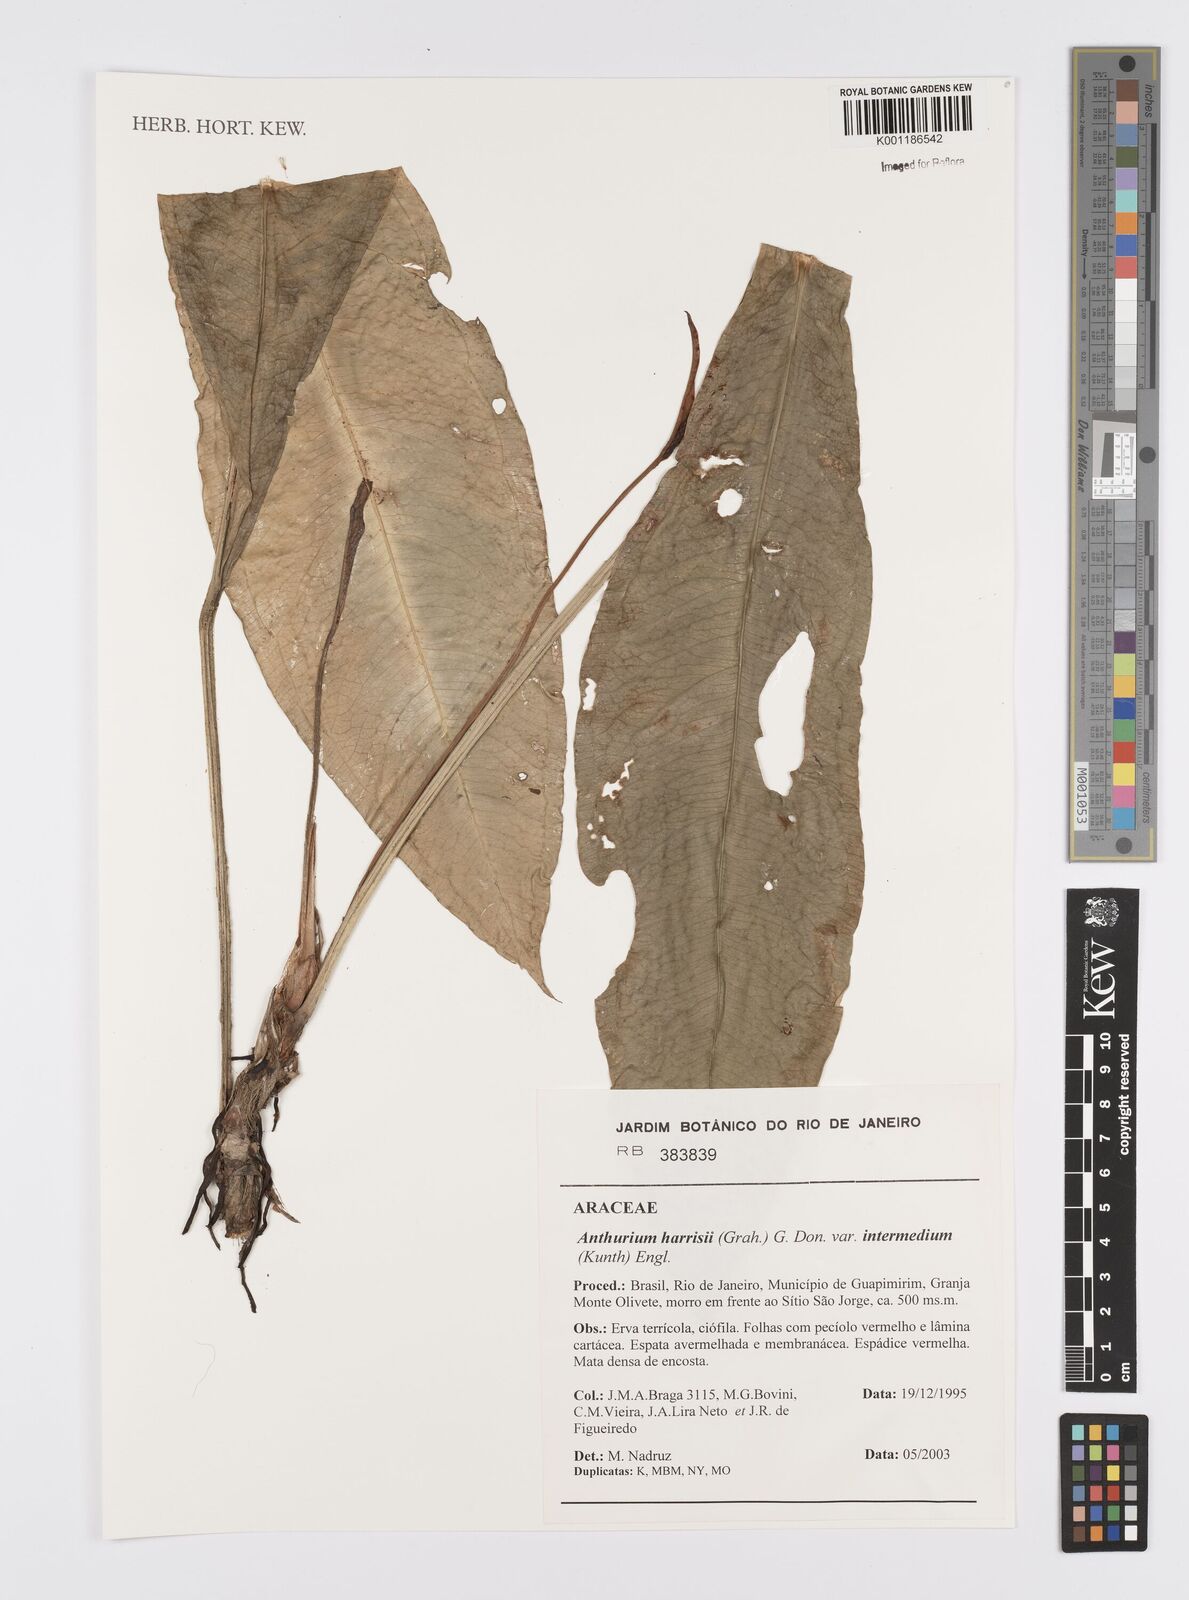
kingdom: Plantae
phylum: Tracheophyta
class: Liliopsida
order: Alismatales
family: Araceae
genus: Anthurium
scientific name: Anthurium intermedium
